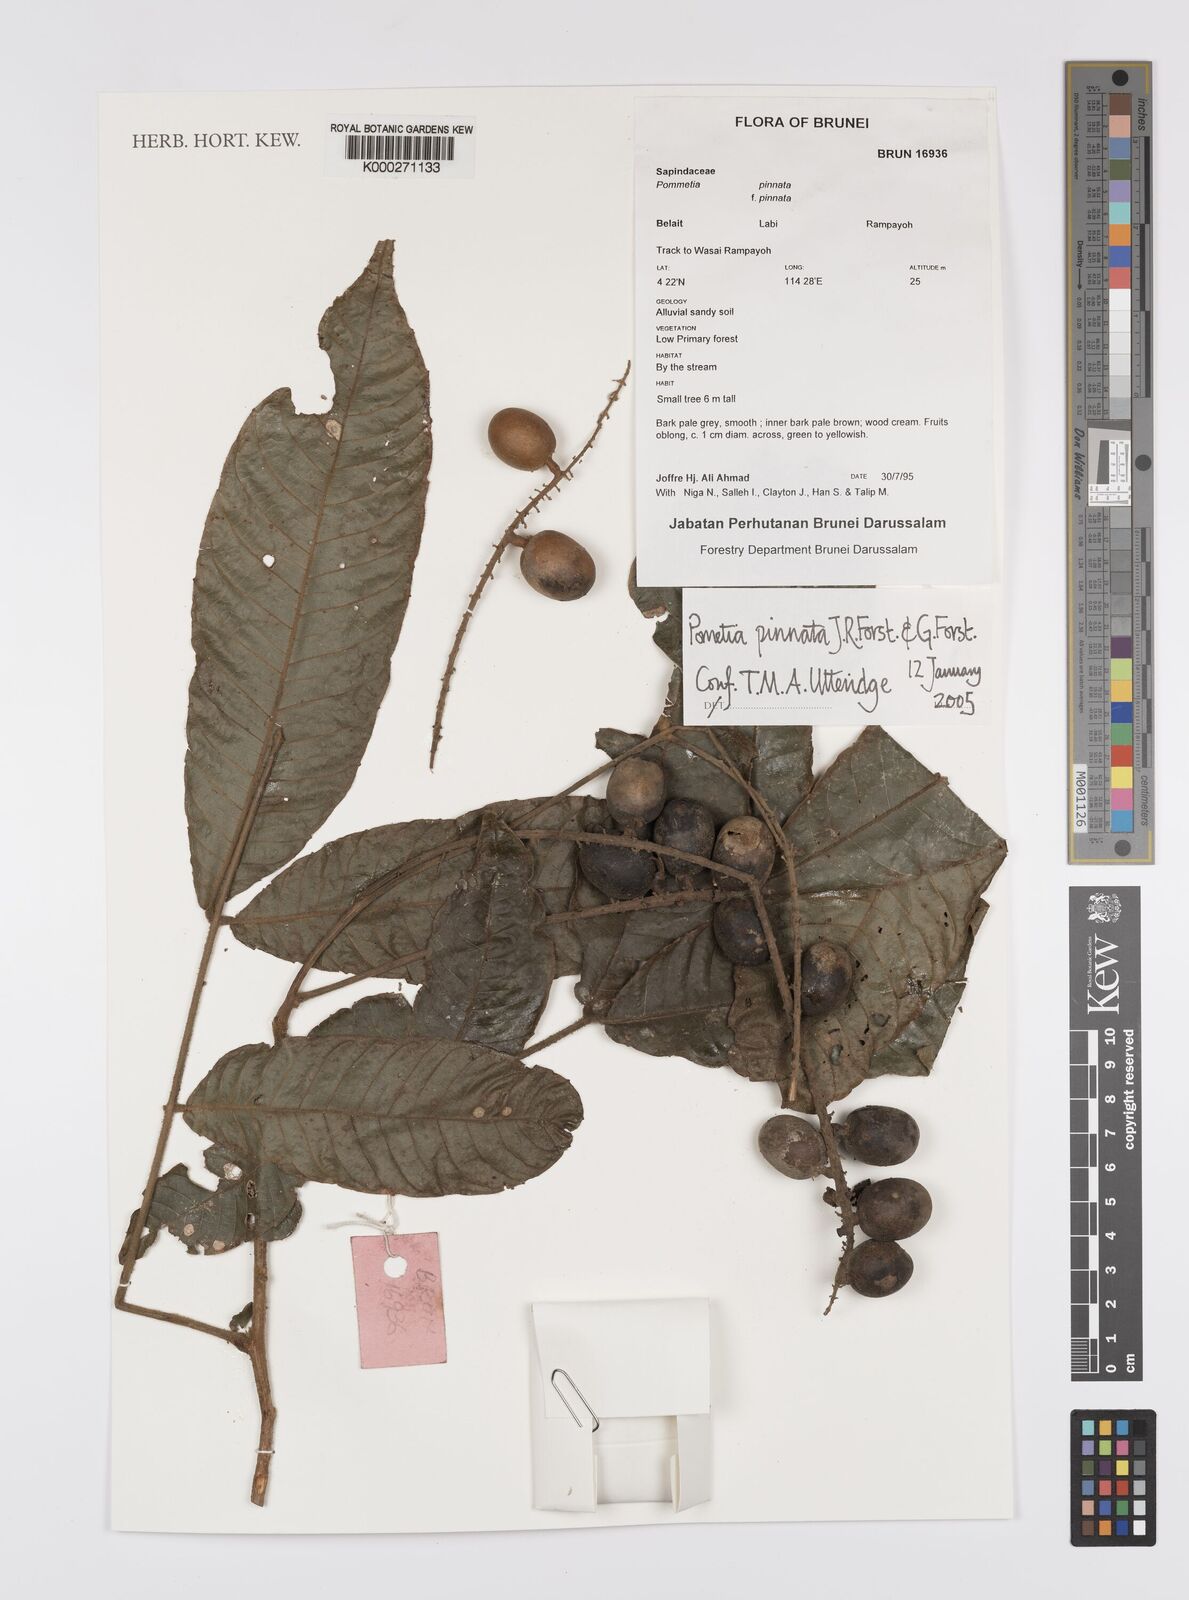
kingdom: Plantae
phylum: Tracheophyta
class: Magnoliopsida
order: Sapindales
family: Sapindaceae
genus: Pometia
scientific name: Pometia pinnata
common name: Oceanic lychee
